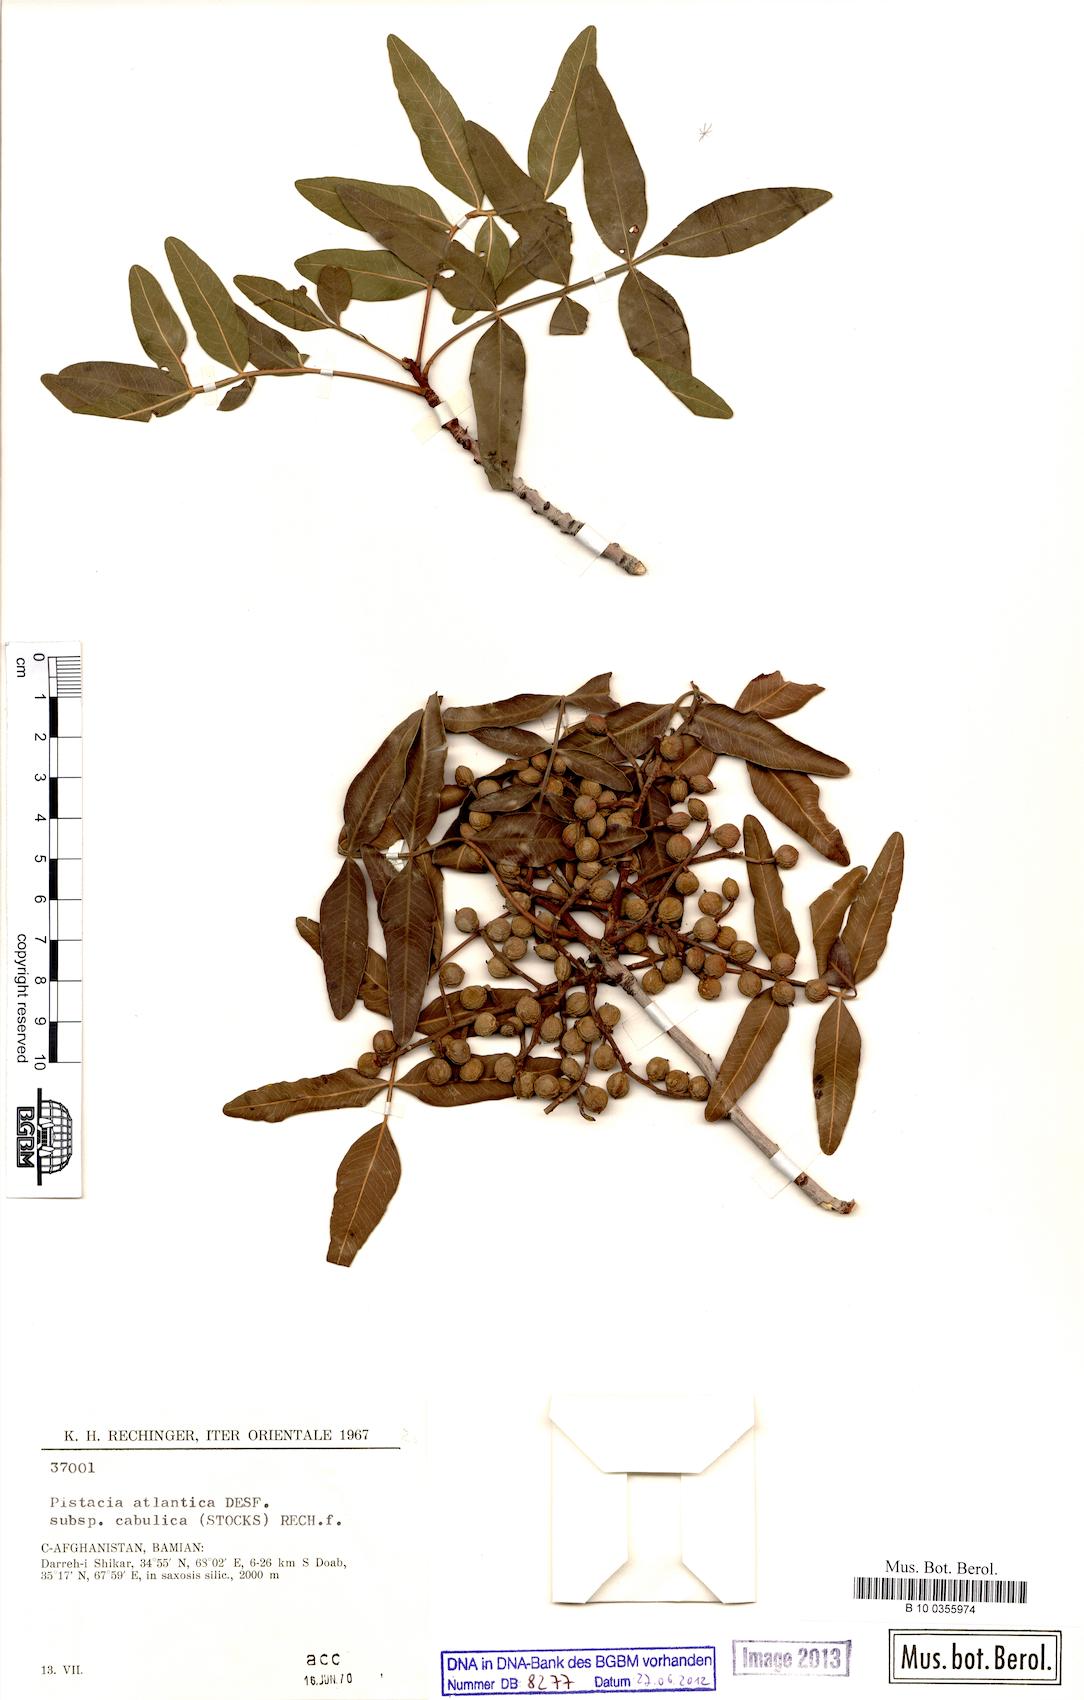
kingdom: Plantae
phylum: Tracheophyta
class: Magnoliopsida
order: Sapindales
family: Anacardiaceae
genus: Pistacia
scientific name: Pistacia atlantica
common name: Mt. atlas mastic tree
